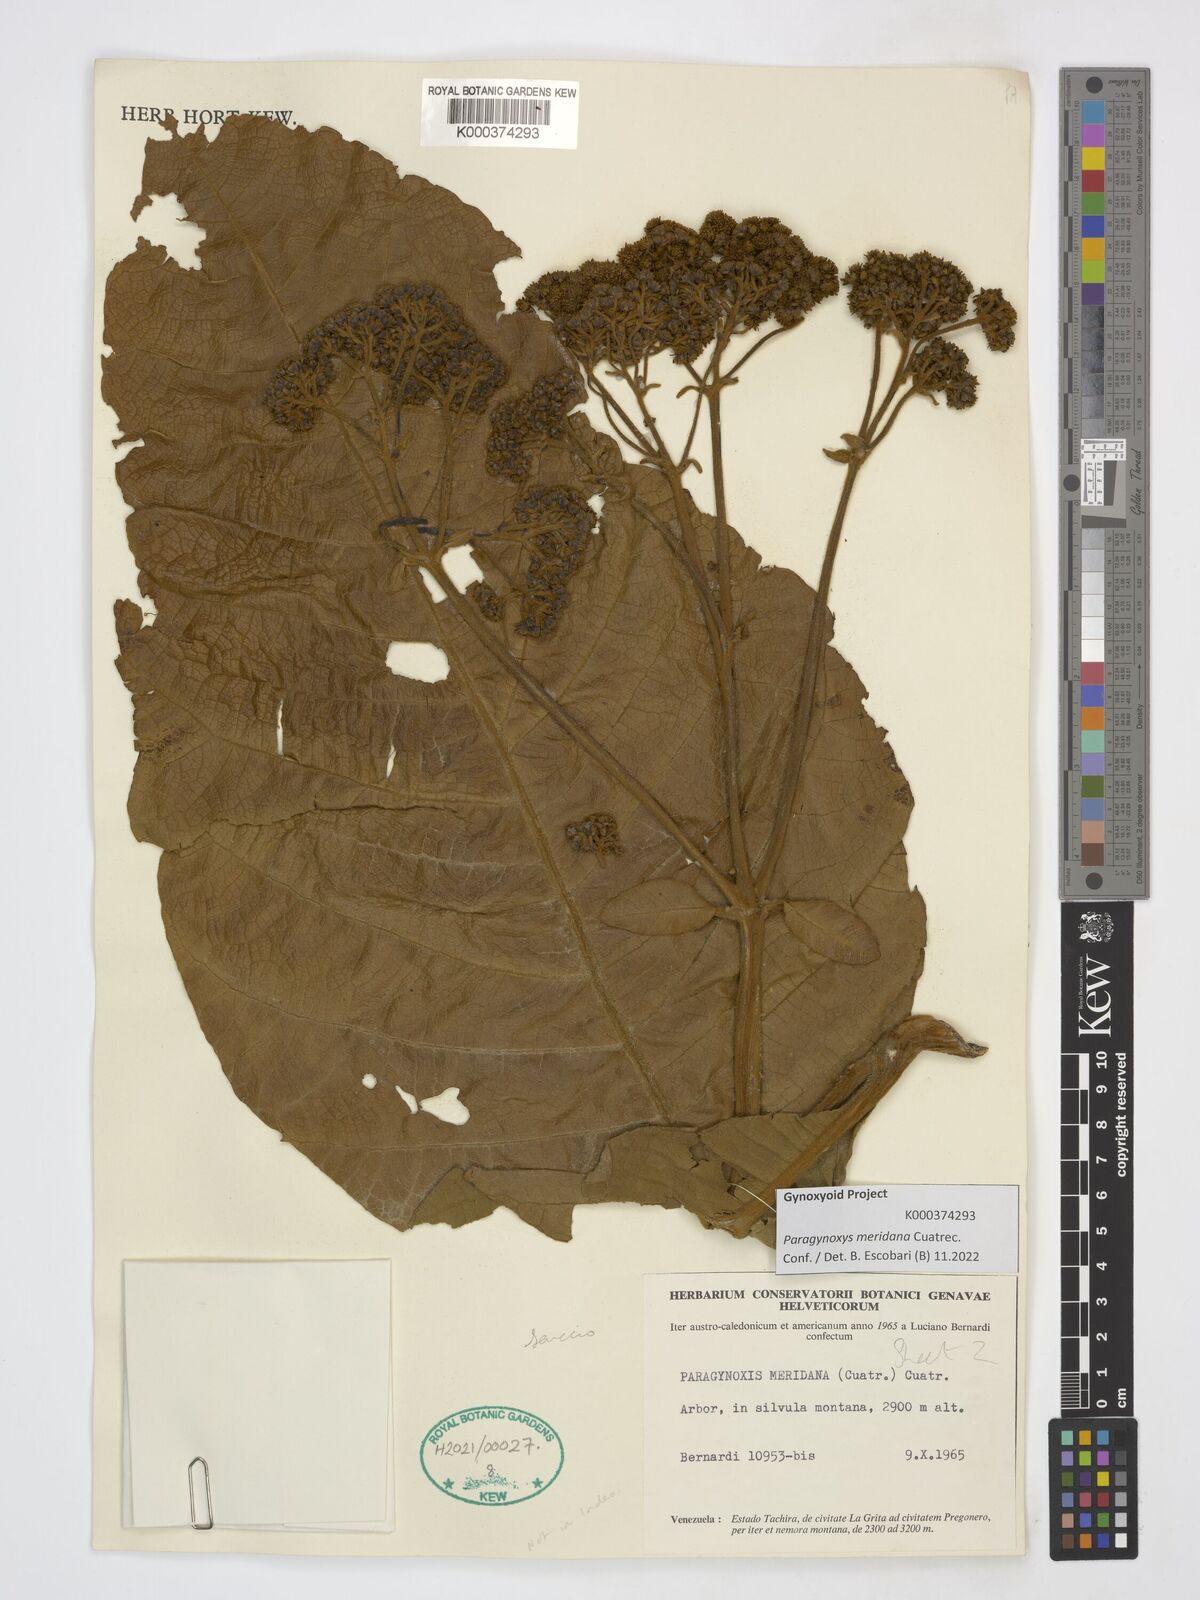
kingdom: Plantae
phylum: Tracheophyta
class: Magnoliopsida
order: Asterales
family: Asteraceae
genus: Paragynoxys
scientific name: Paragynoxys meridana
